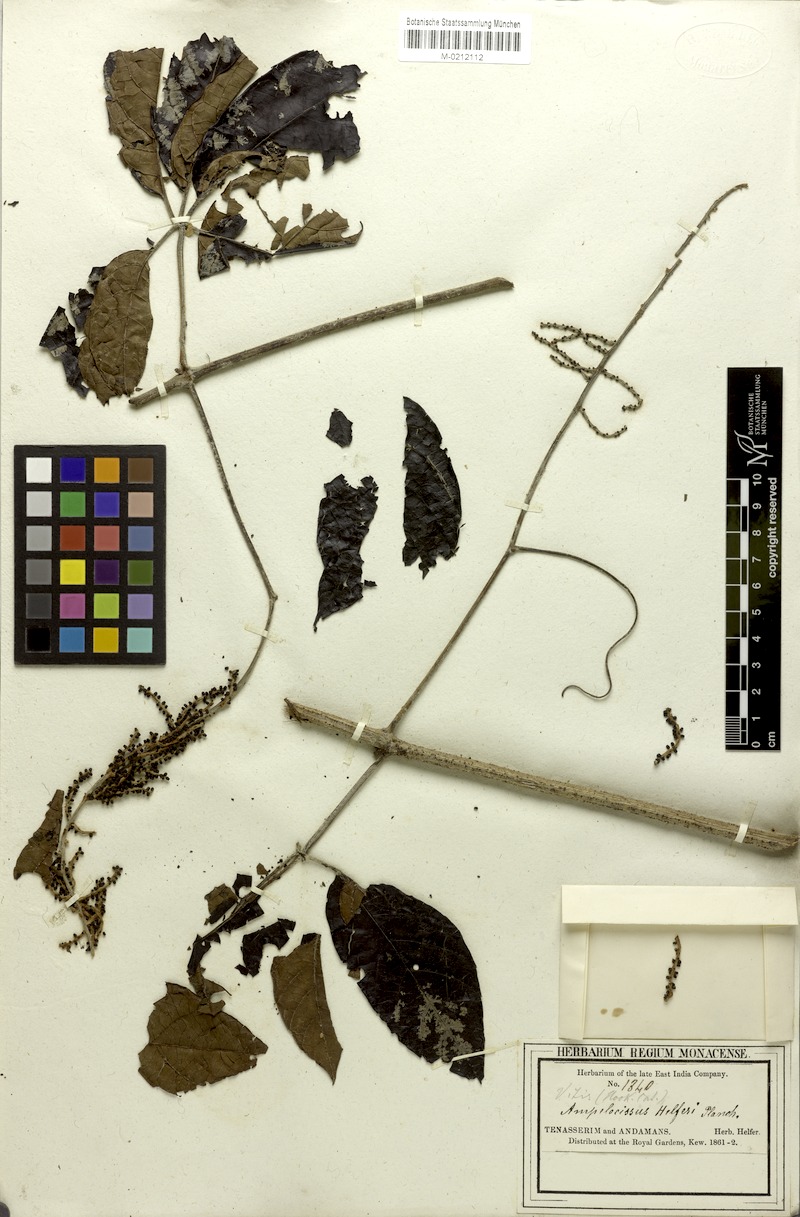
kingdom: Plantae
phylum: Tracheophyta
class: Magnoliopsida
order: Vitales
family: Vitaceae
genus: Ampelocissus
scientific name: Ampelocissus helferi
